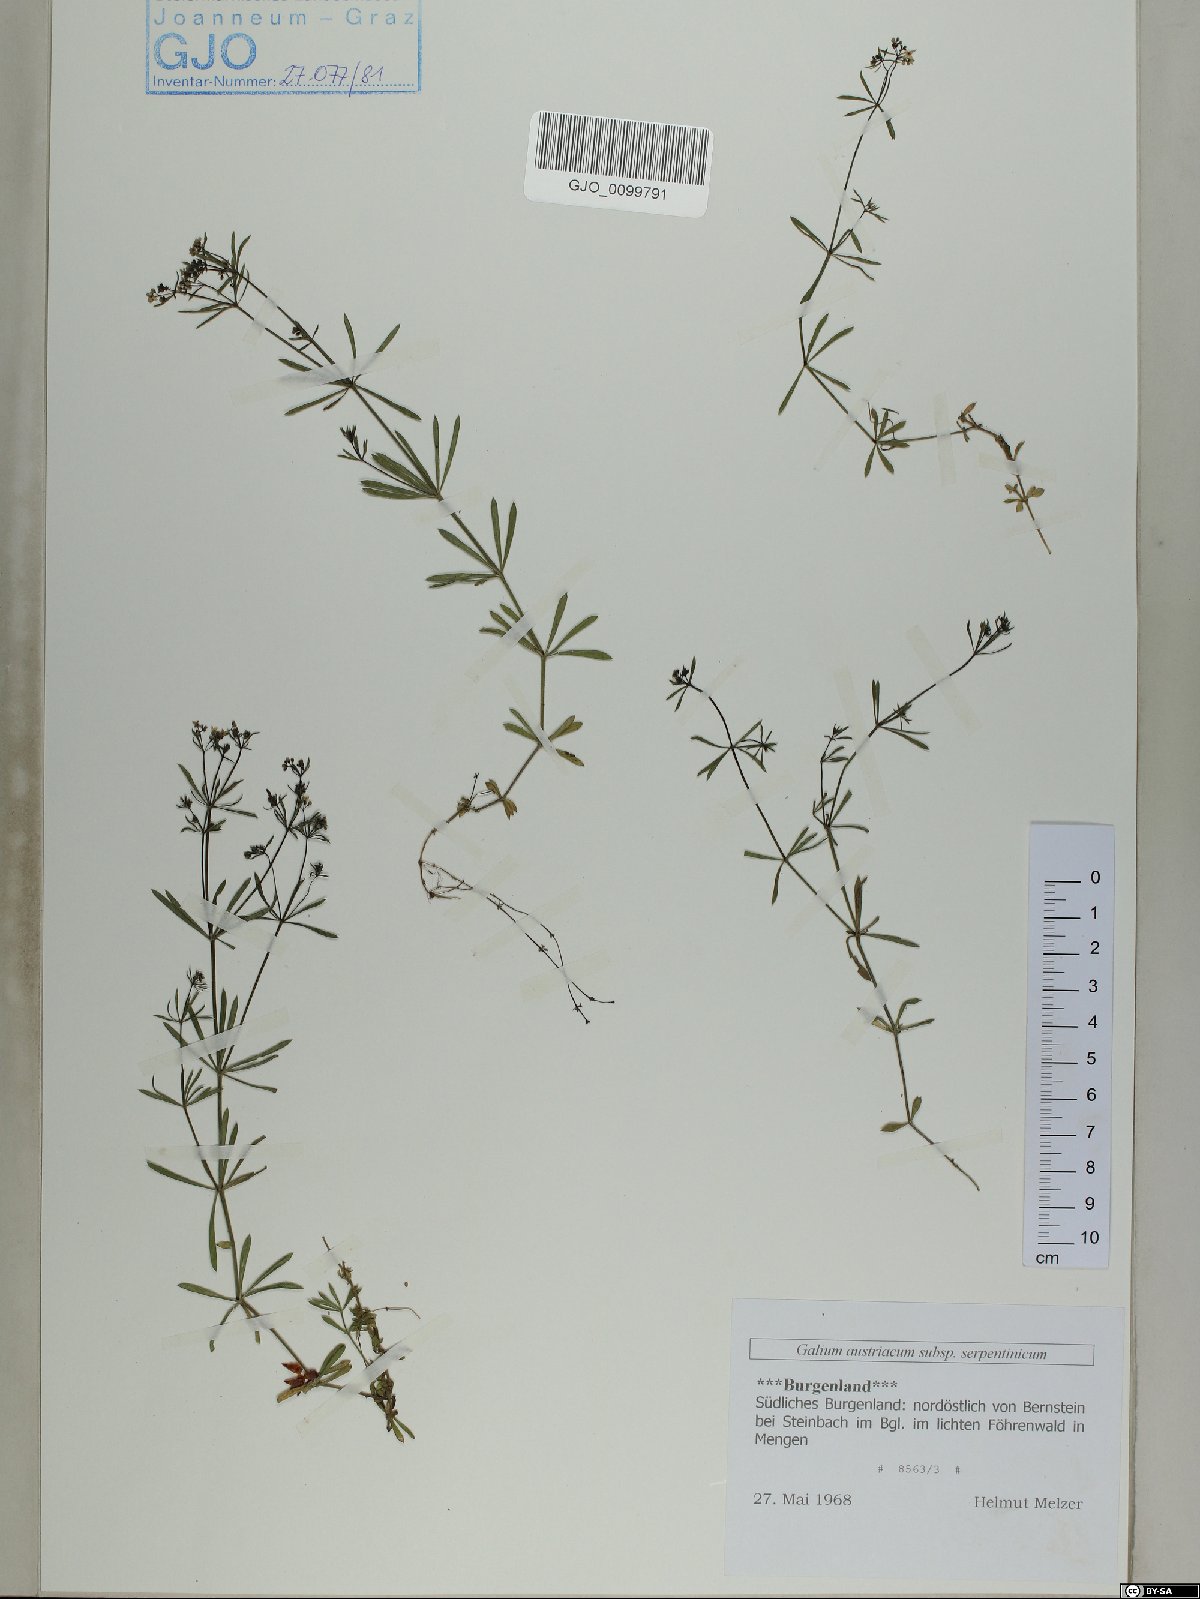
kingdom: Plantae
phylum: Tracheophyta
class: Magnoliopsida
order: Gentianales
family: Rubiaceae
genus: Galium
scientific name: Galium austriacum
